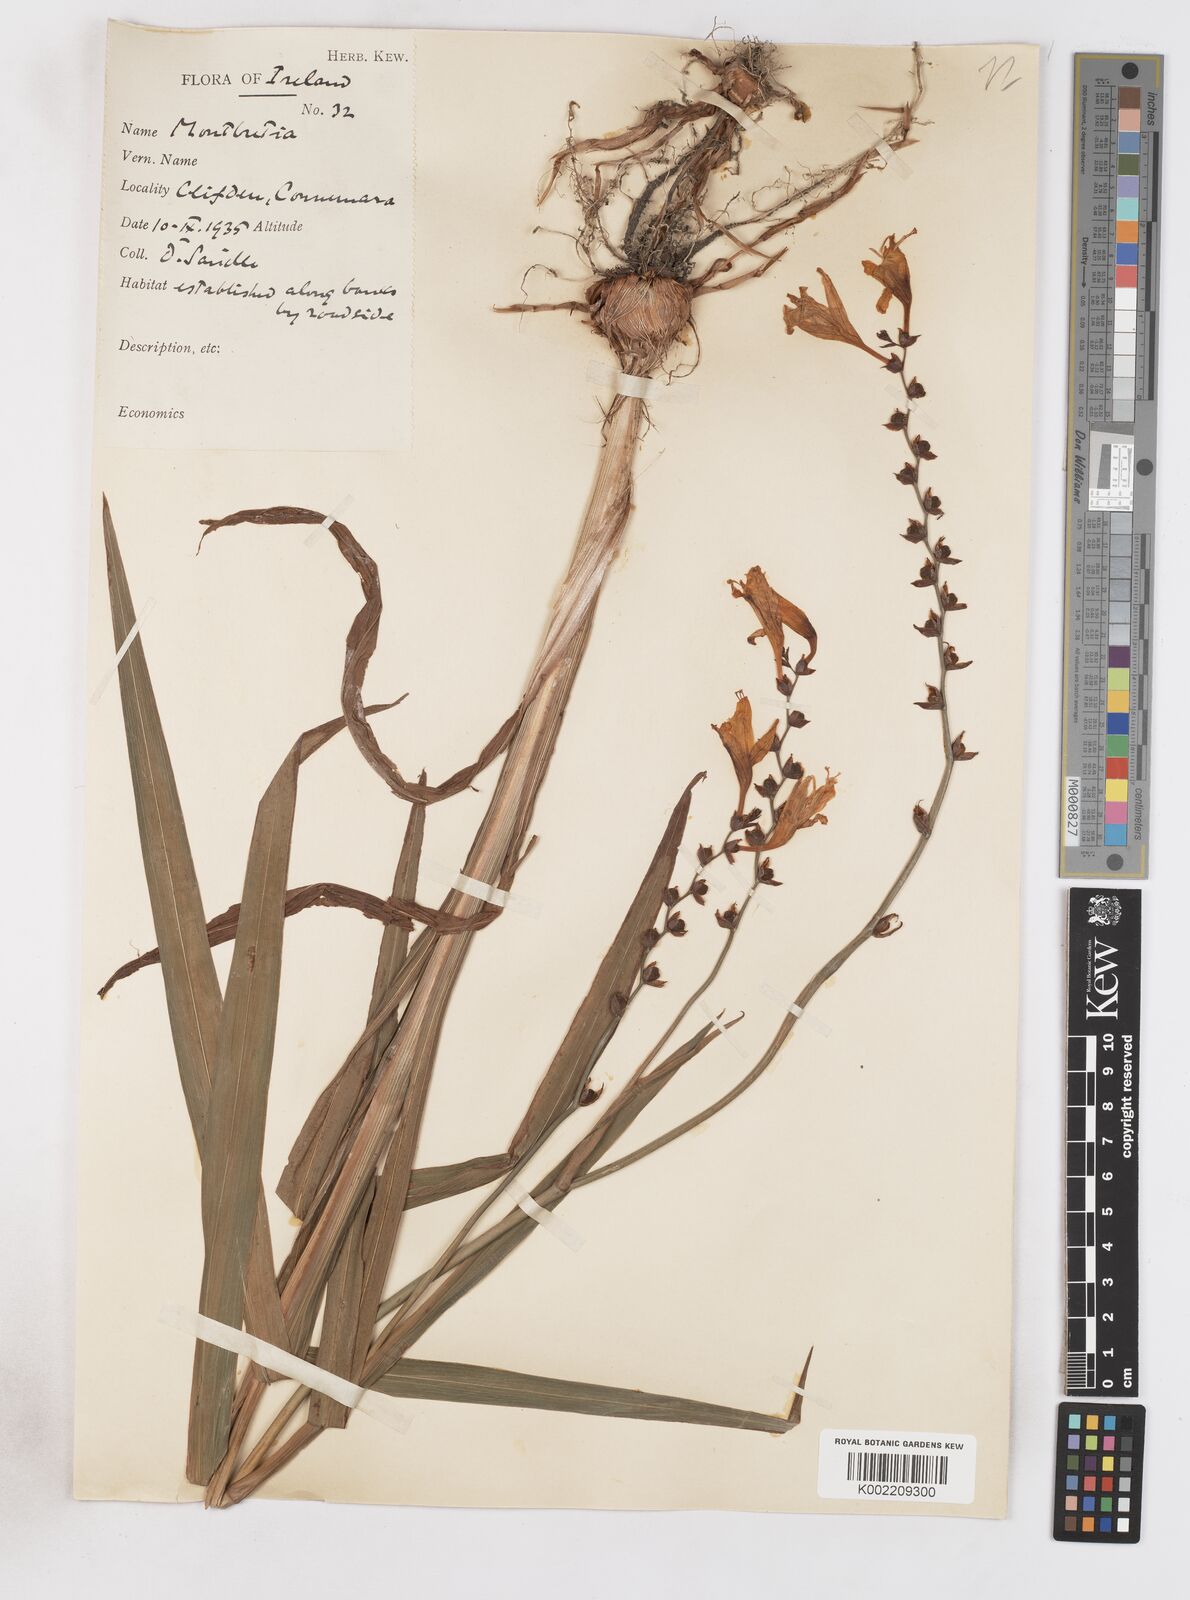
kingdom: Plantae
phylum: Tracheophyta
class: Liliopsida
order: Asparagales
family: Iridaceae
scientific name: Iridaceae
